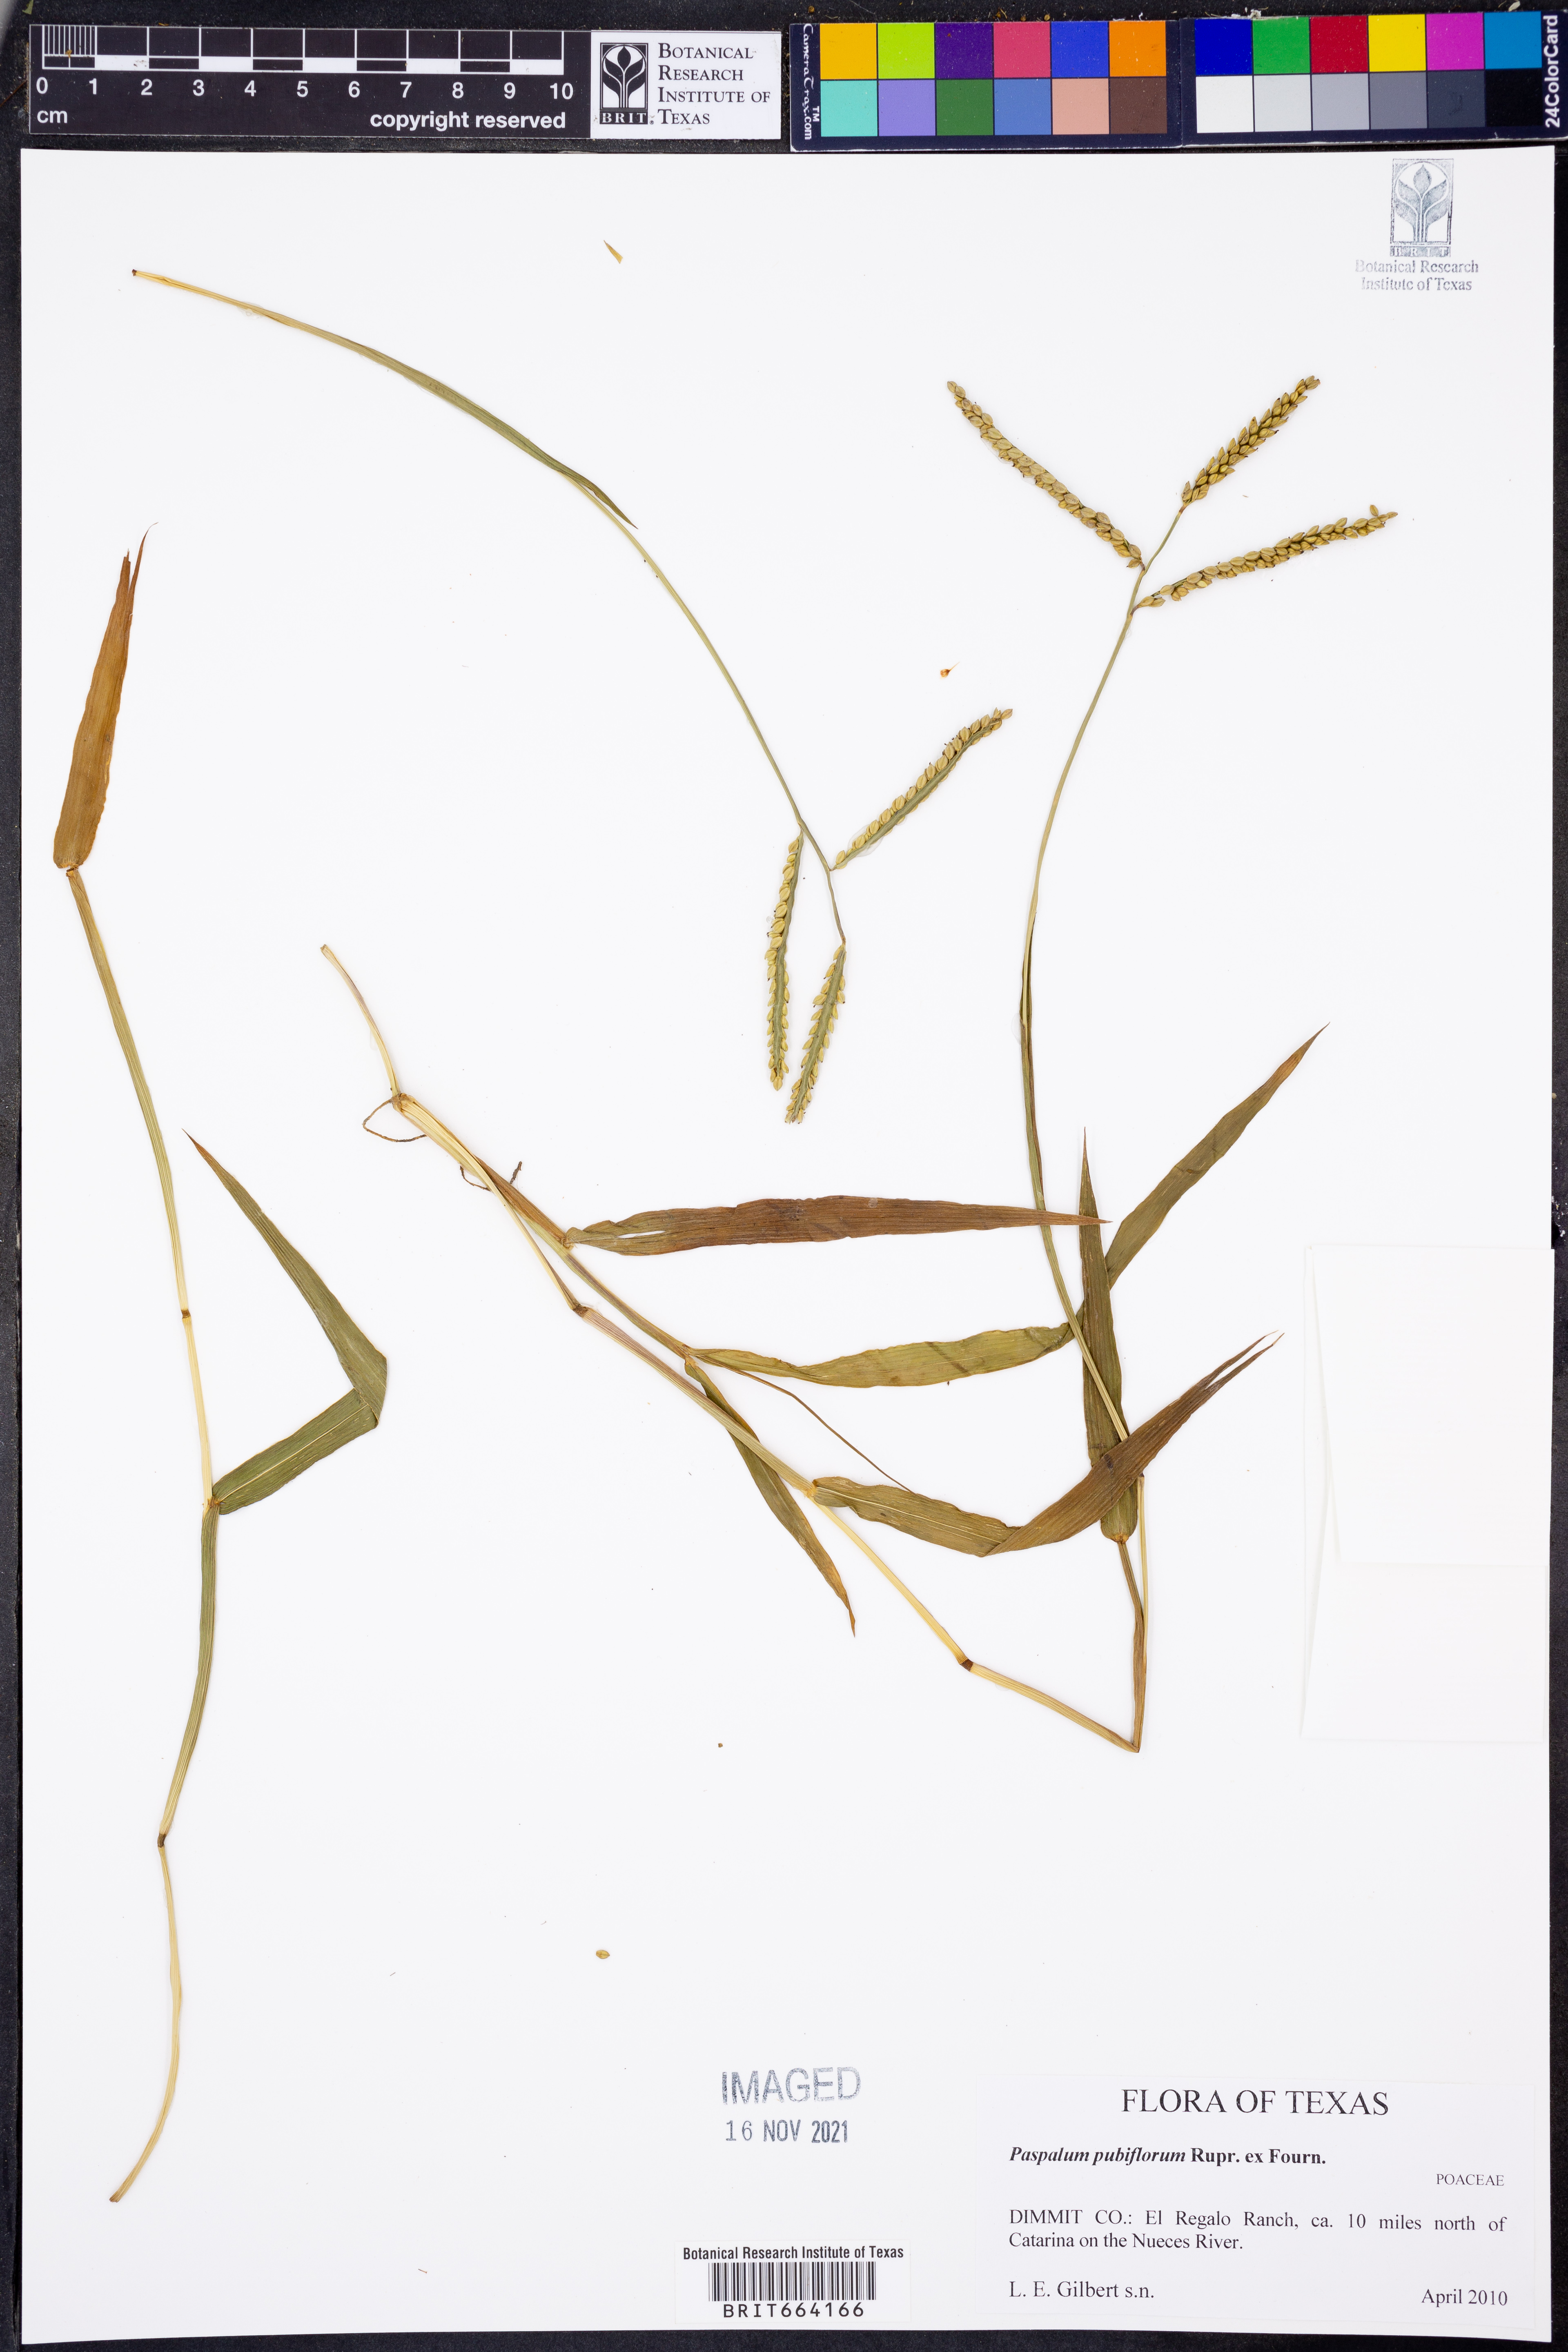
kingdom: Plantae
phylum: Tracheophyta
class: Liliopsida
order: Poales
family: Poaceae
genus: Paspalum
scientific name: Paspalum pubiflorum
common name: Hairy-seed paspalum
